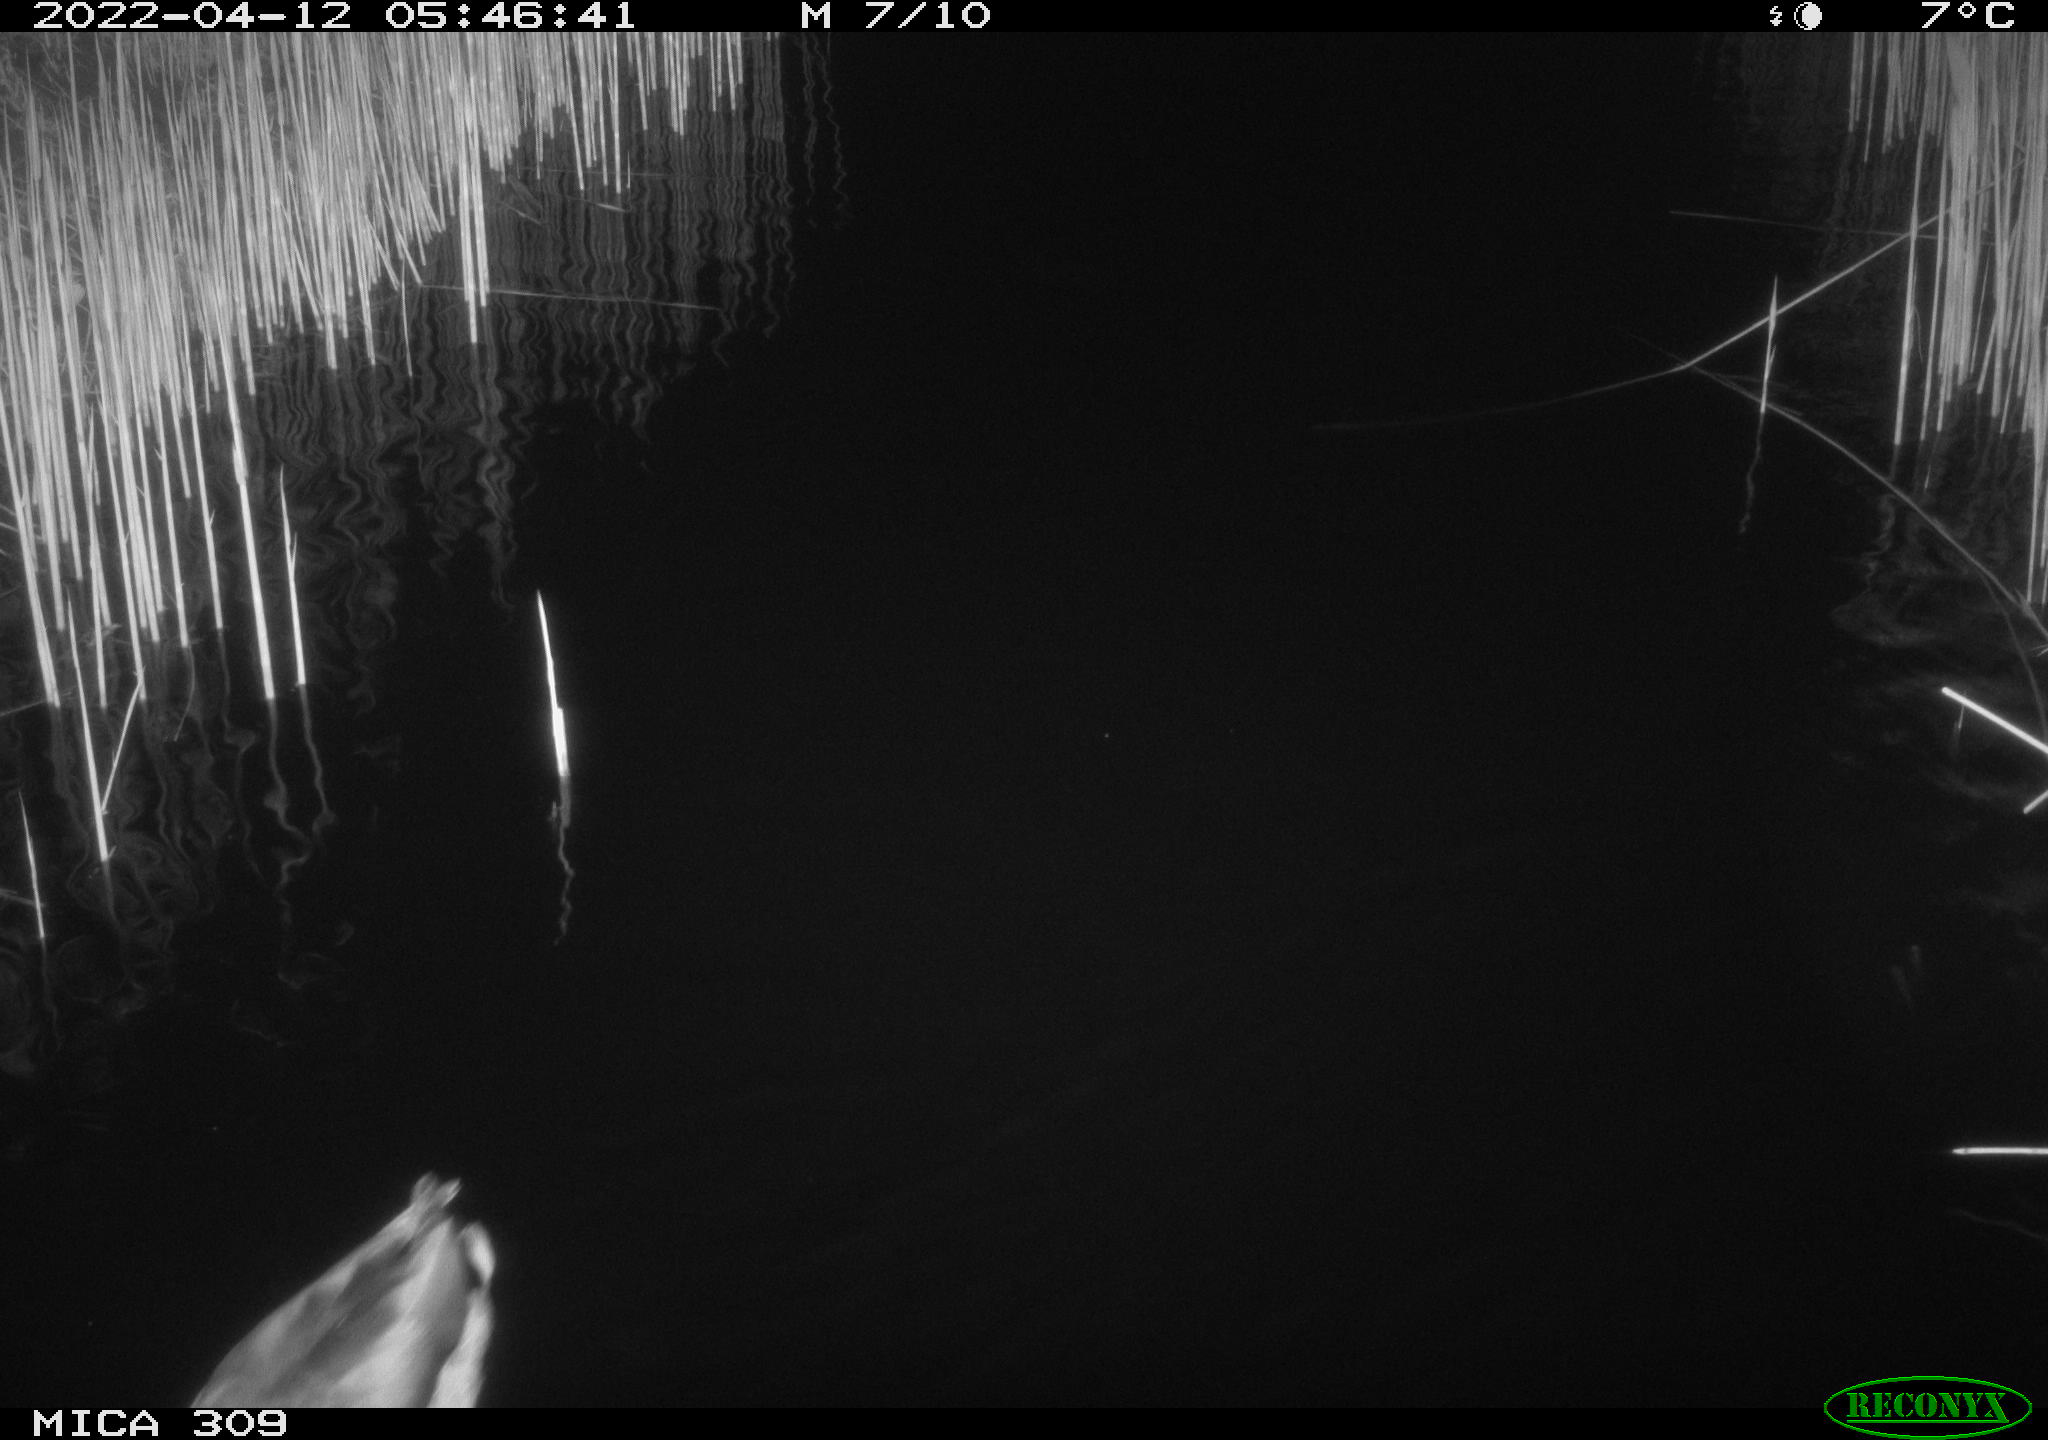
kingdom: Animalia
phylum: Chordata
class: Aves
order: Anseriformes
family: Anatidae
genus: Anas
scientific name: Anas platyrhynchos
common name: Mallard
